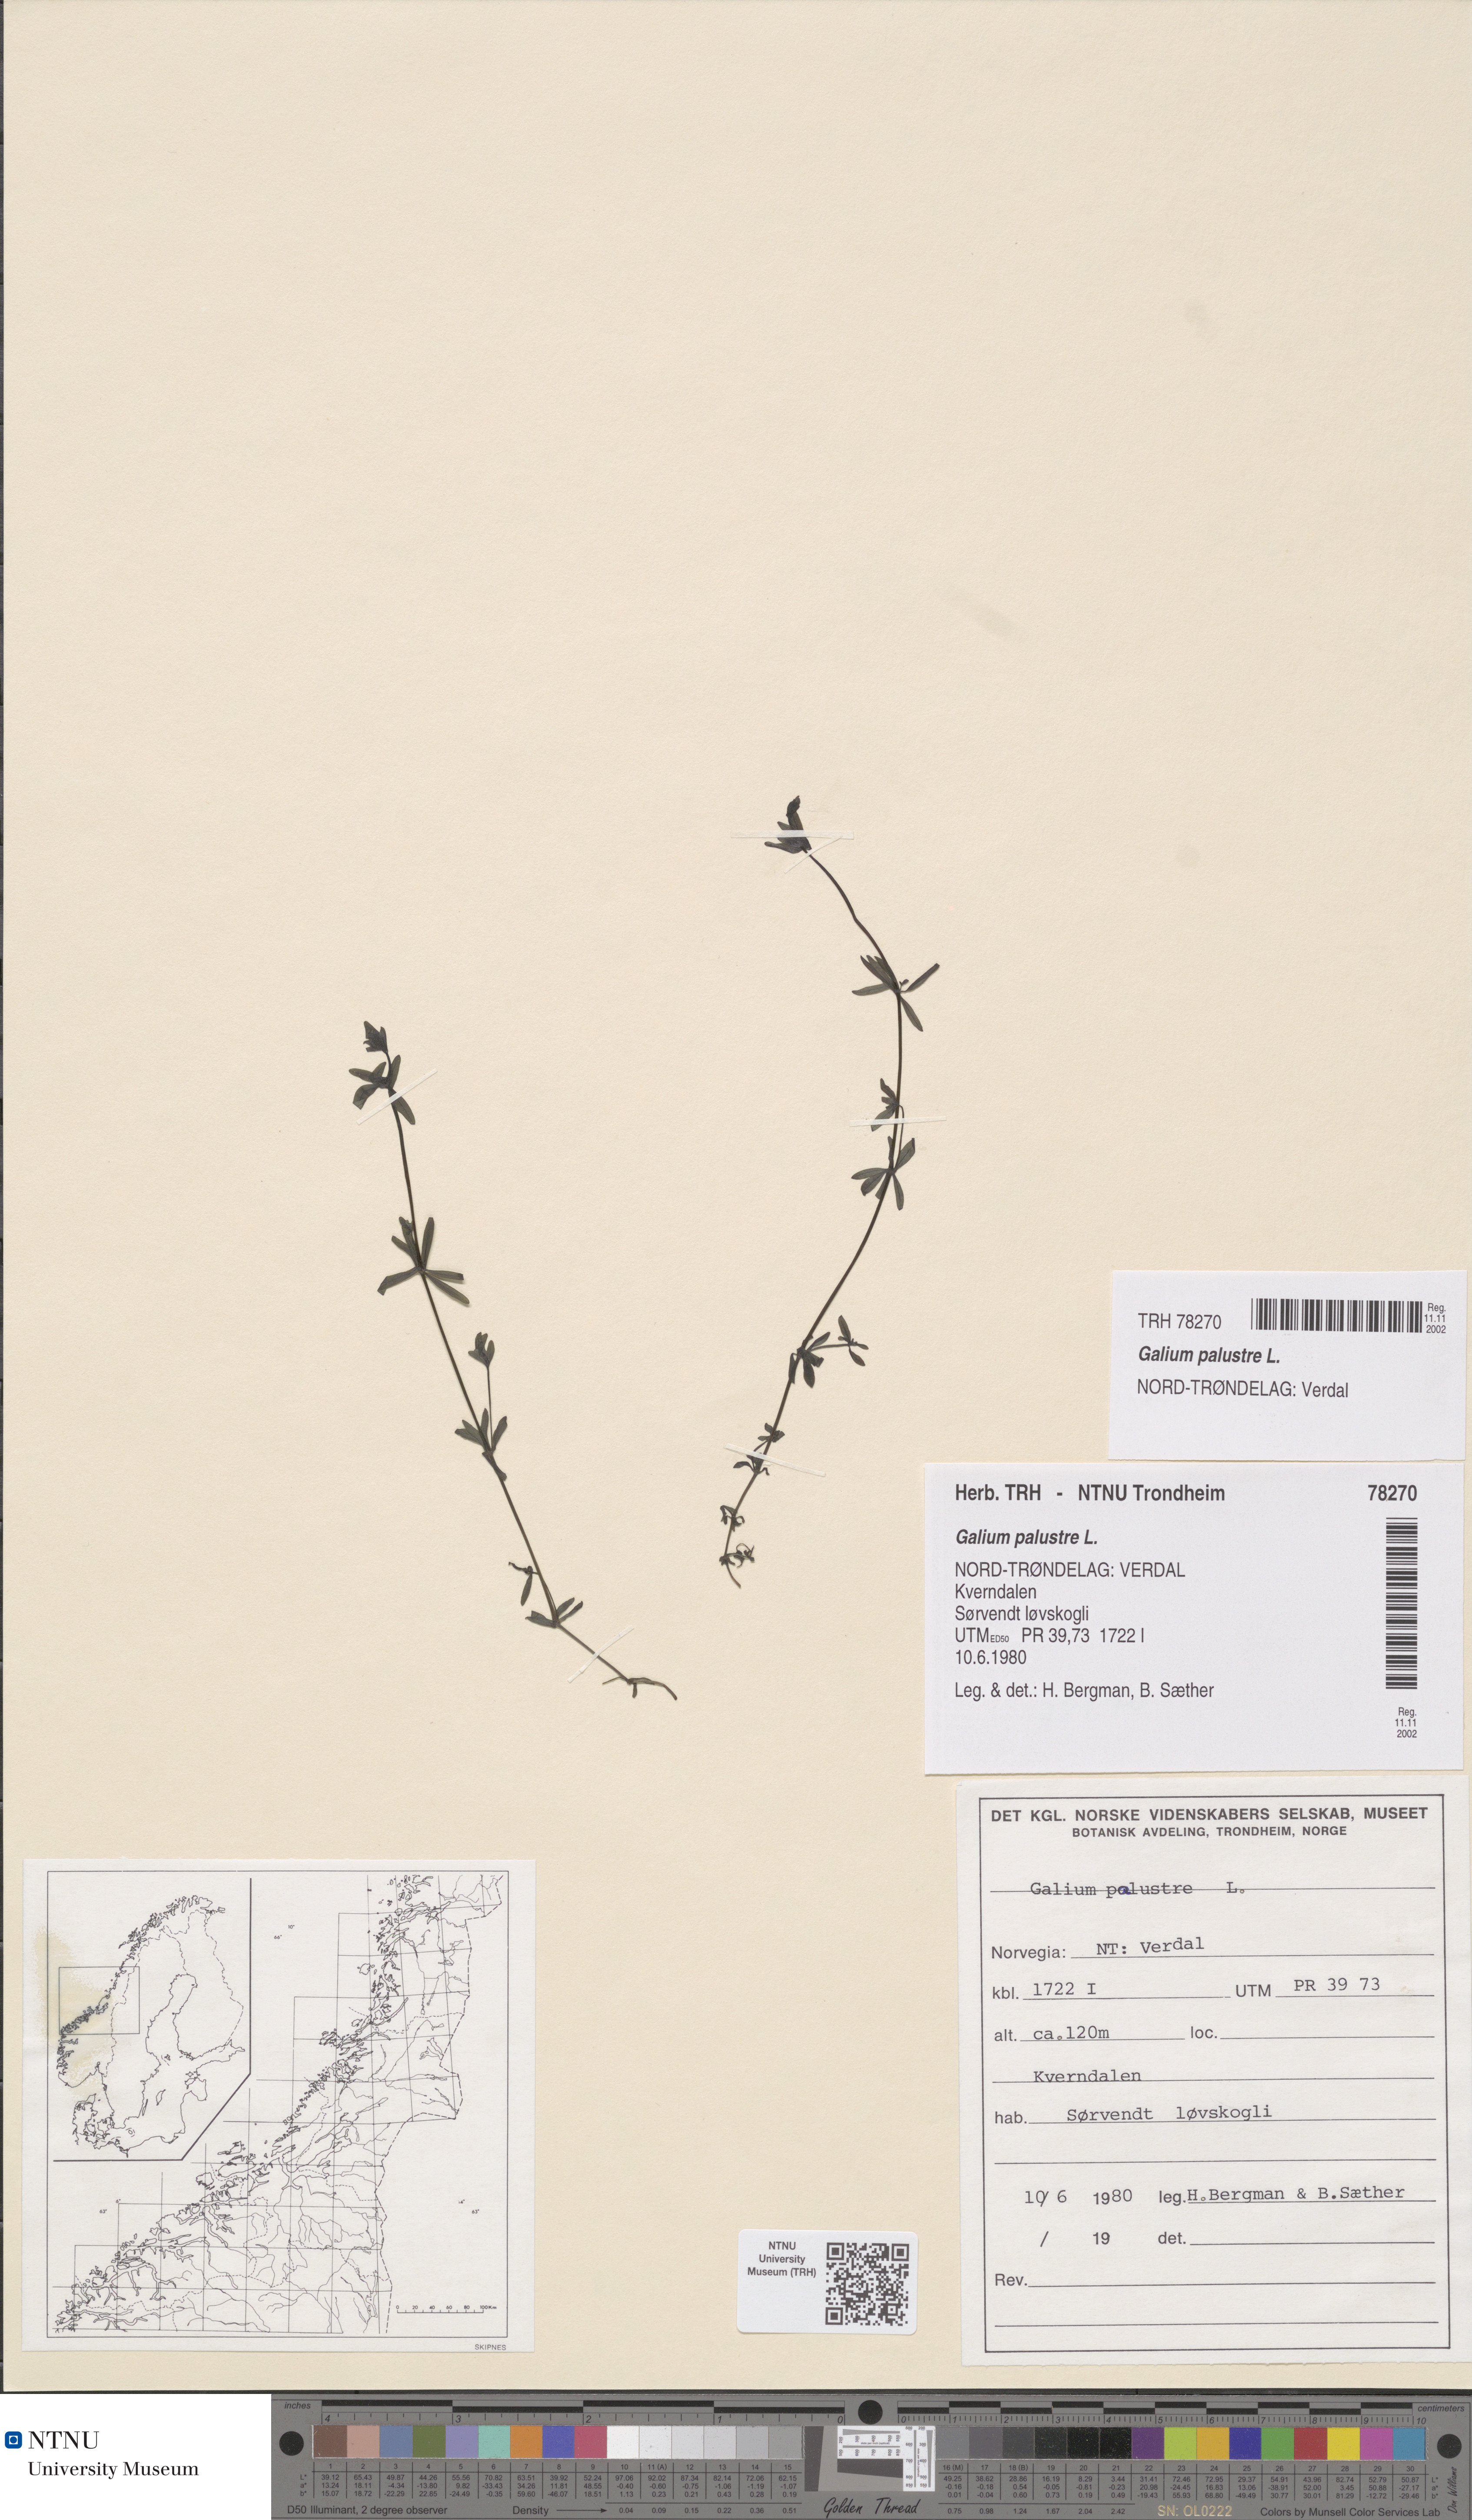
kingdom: Plantae
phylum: Tracheophyta
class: Magnoliopsida
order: Gentianales
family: Rubiaceae
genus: Galium
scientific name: Galium palustre
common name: Common marsh-bedstraw
